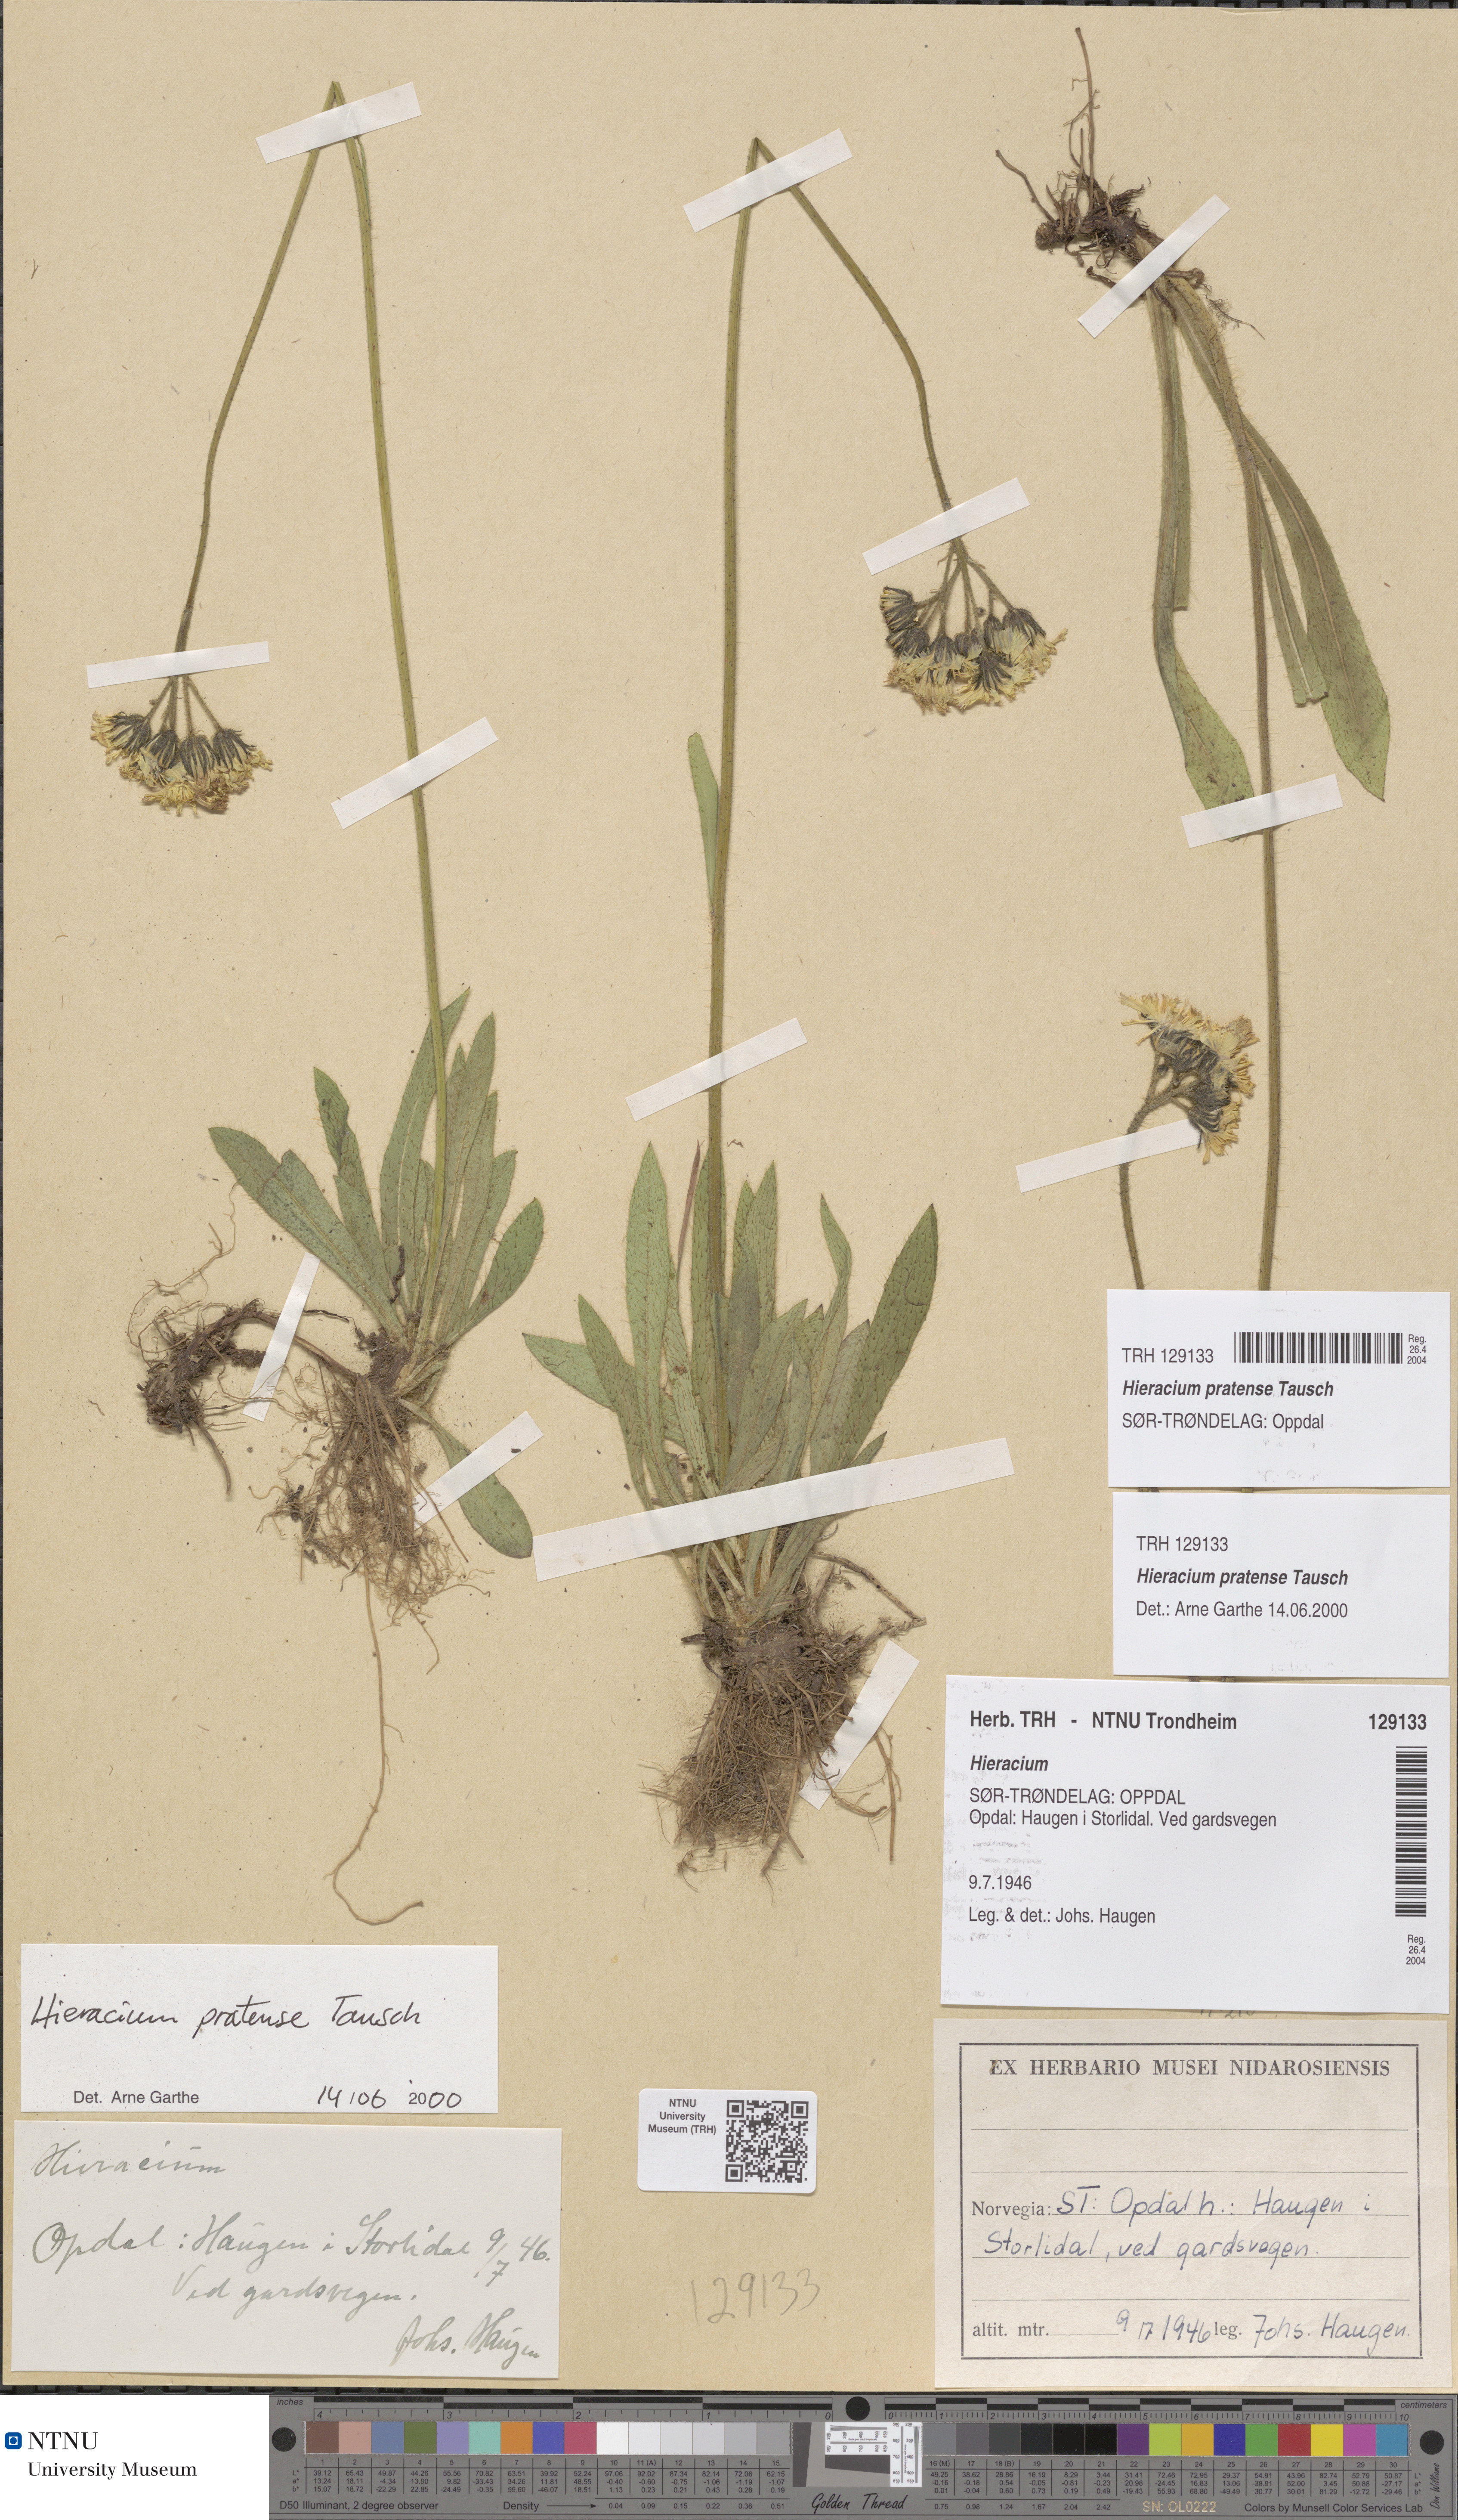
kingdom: Plantae
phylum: Tracheophyta
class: Magnoliopsida
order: Asterales
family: Asteraceae
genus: Pilosella
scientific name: Pilosella caespitosa
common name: Yellow fox-and-cubs
